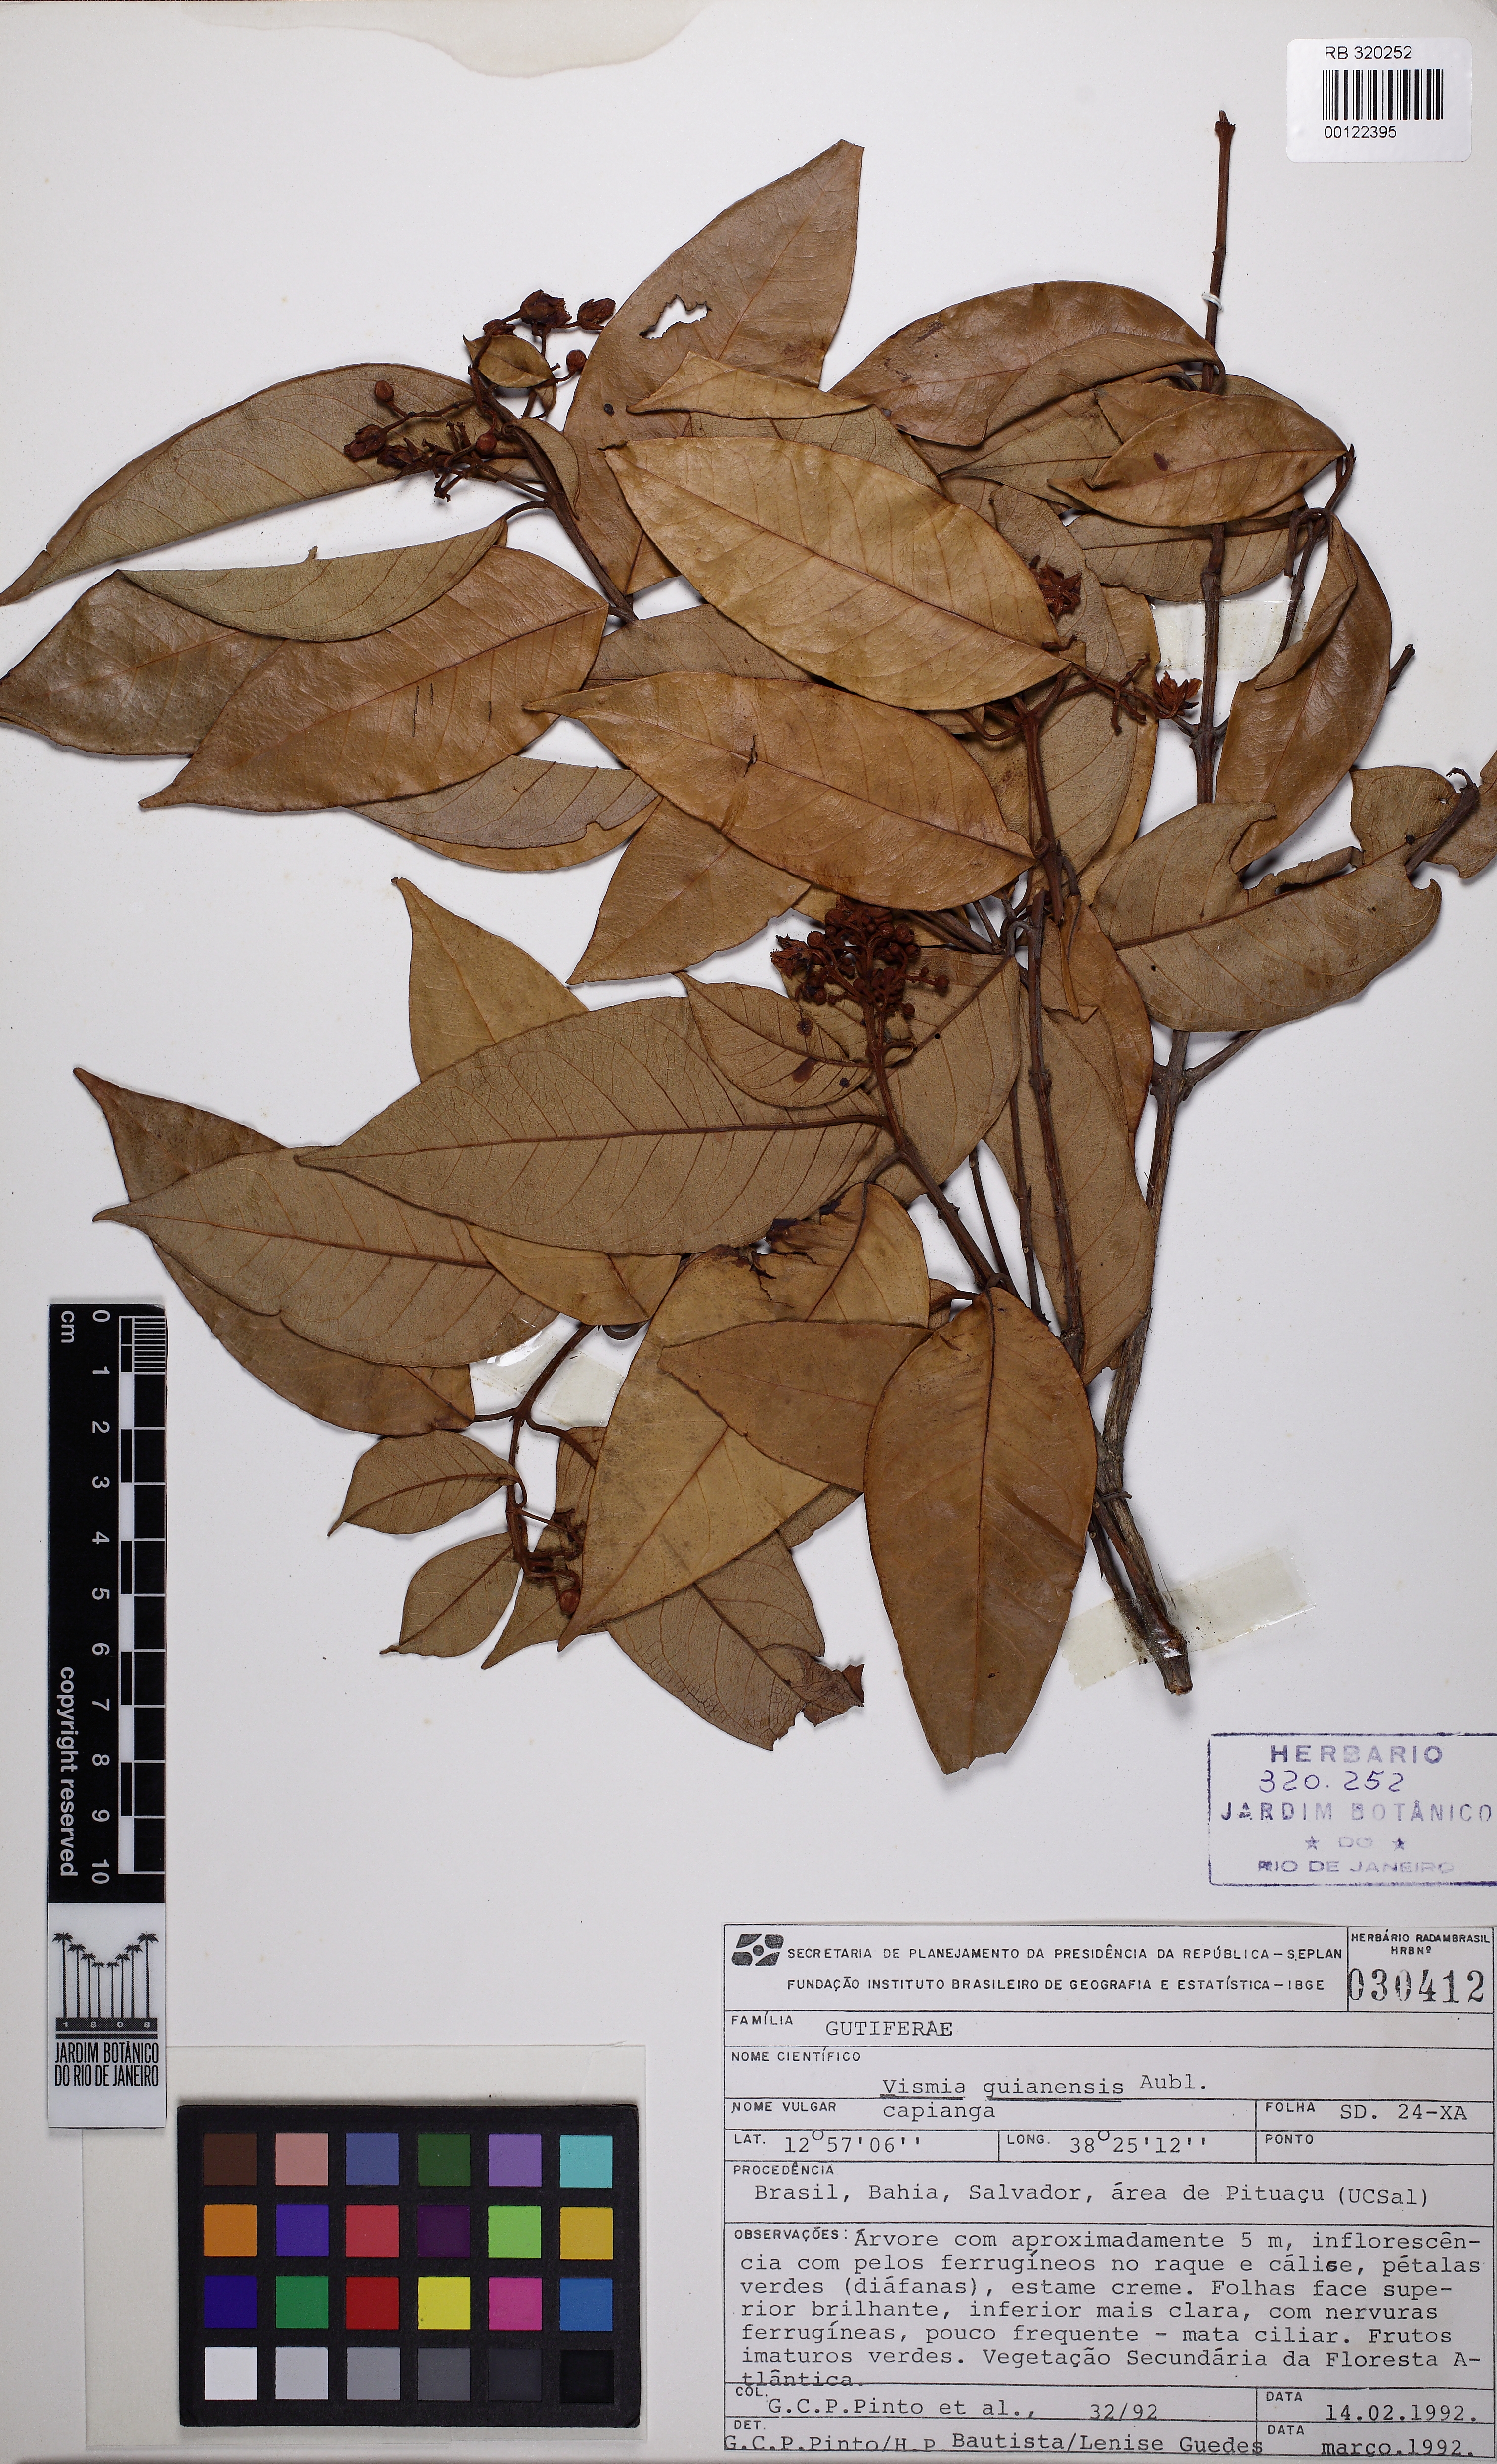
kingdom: Plantae
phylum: Tracheophyta
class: Magnoliopsida
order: Malpighiales
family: Hypericaceae
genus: Vismia
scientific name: Vismia guianensis
